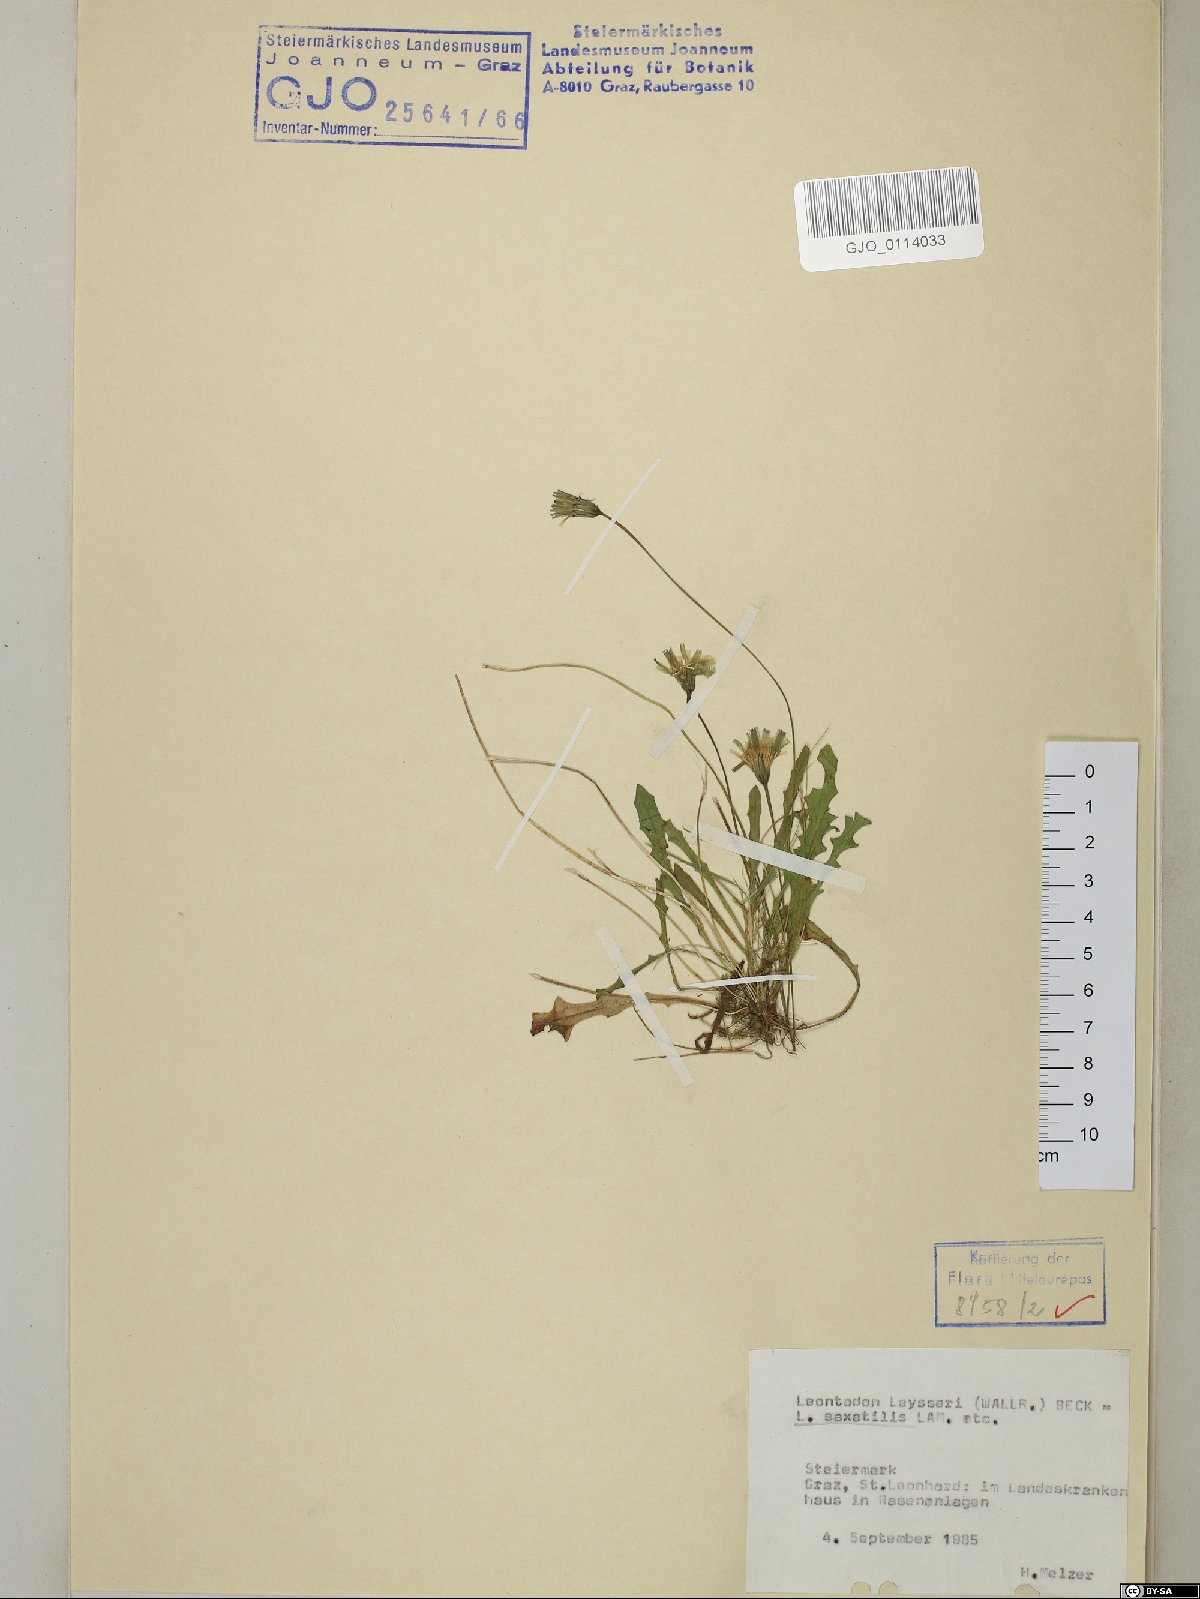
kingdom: Plantae
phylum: Tracheophyta
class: Magnoliopsida
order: Asterales
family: Asteraceae
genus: Thrincia
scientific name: Thrincia saxatilis
